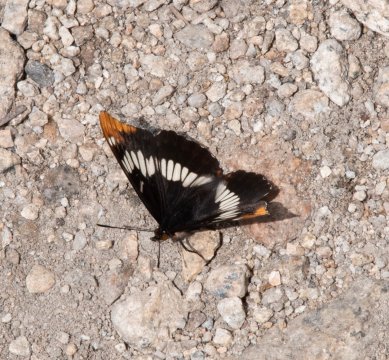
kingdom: Animalia
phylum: Arthropoda
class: Insecta
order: Lepidoptera
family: Nymphalidae
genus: Limenitis
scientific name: Limenitis lorquini
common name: Lorquin's Admiral
